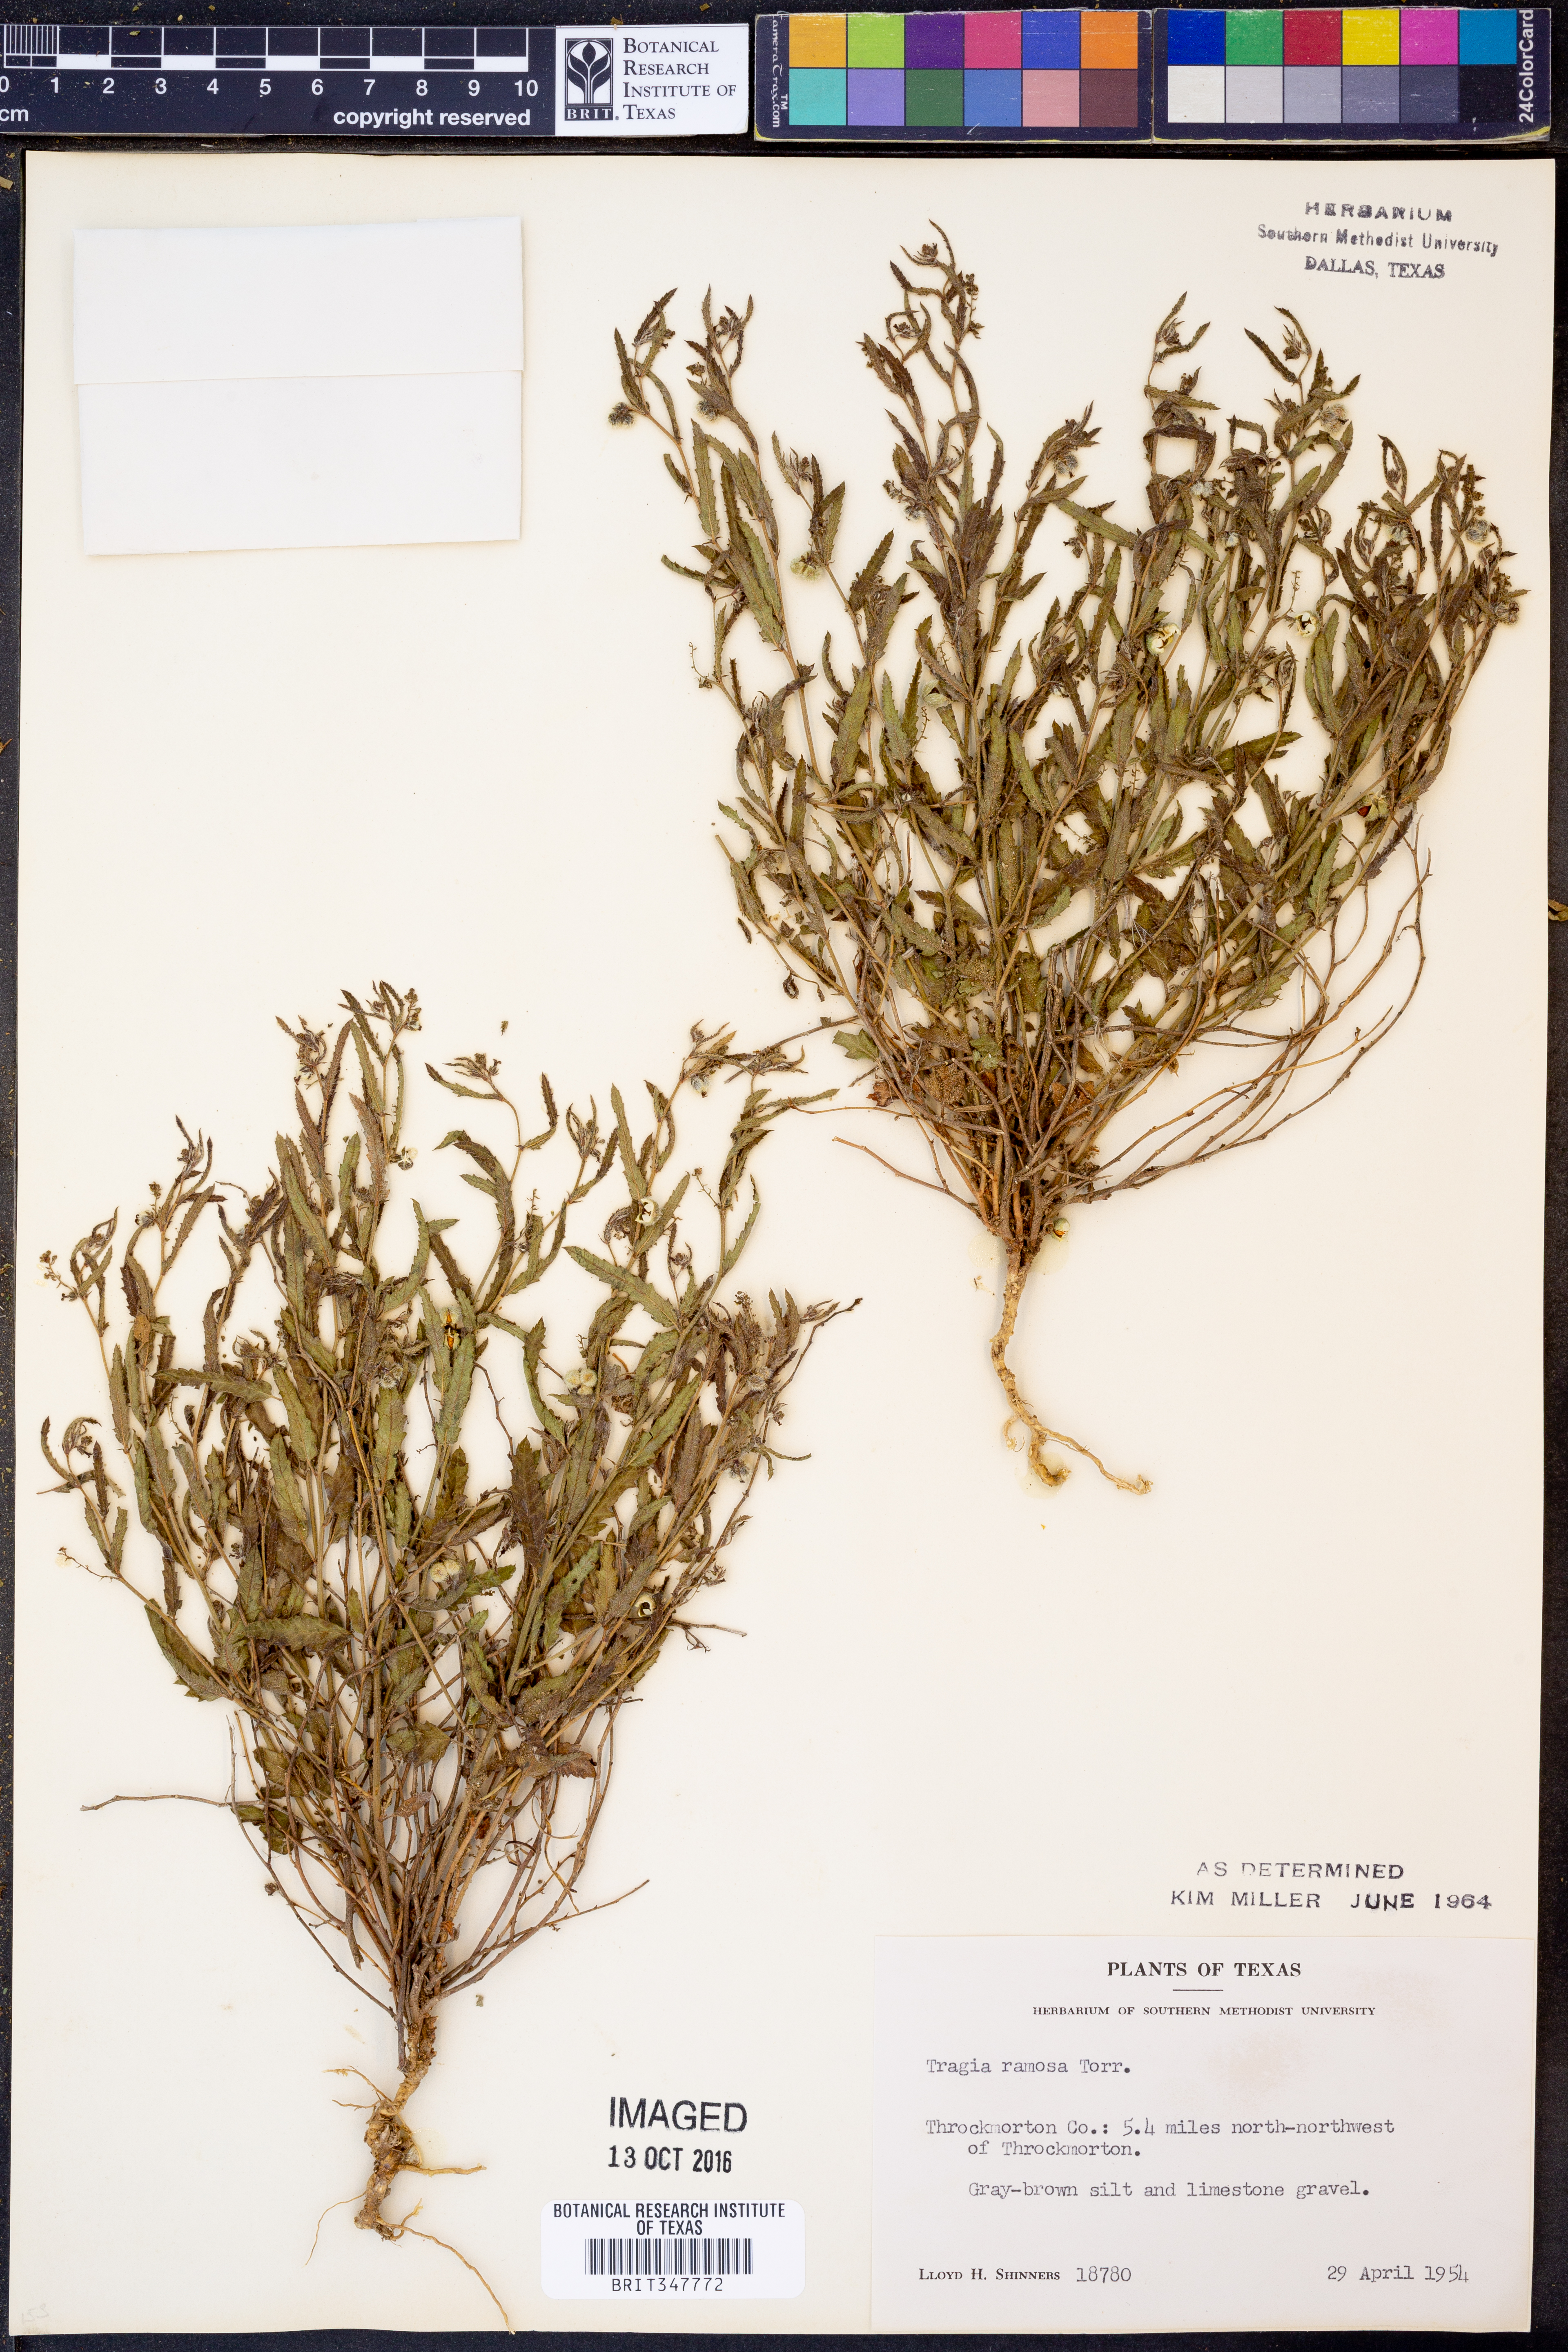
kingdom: Plantae
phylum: Tracheophyta
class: Magnoliopsida
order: Malpighiales
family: Euphorbiaceae
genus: Tragia
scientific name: Tragia ramosa
